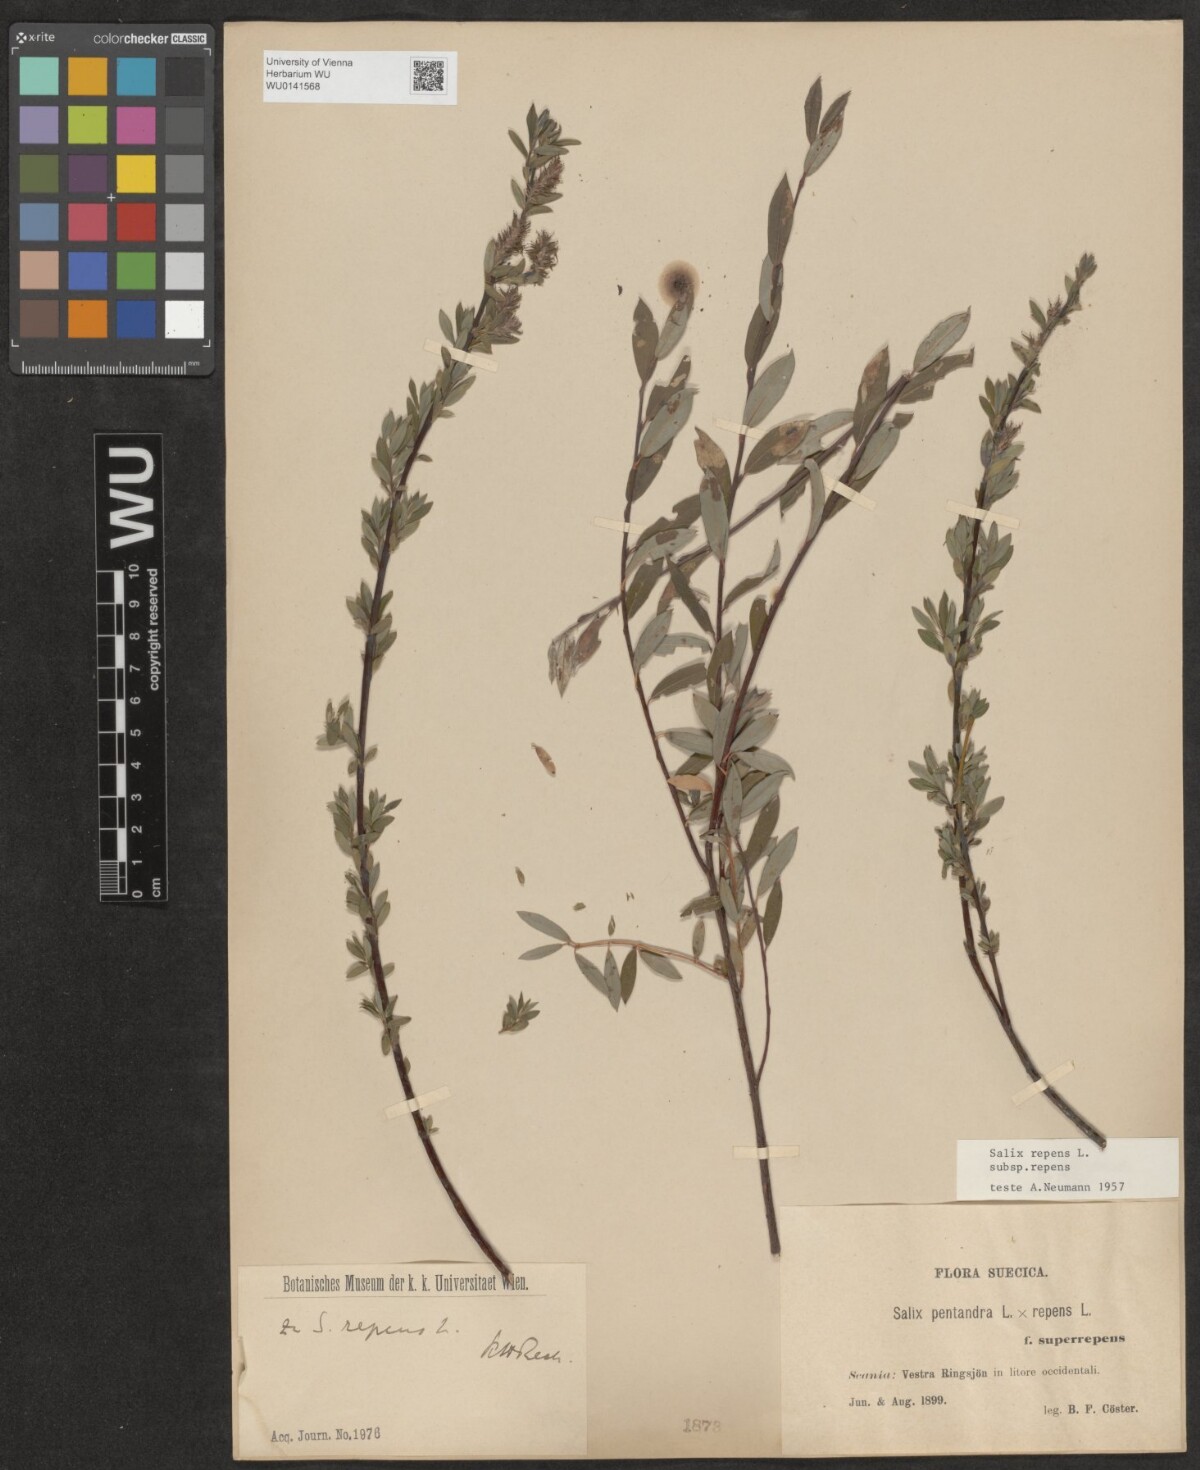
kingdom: Plantae
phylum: Tracheophyta
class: Magnoliopsida
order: Malpighiales
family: Salicaceae
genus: Salix
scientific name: Salix repens
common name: Creeping willow
